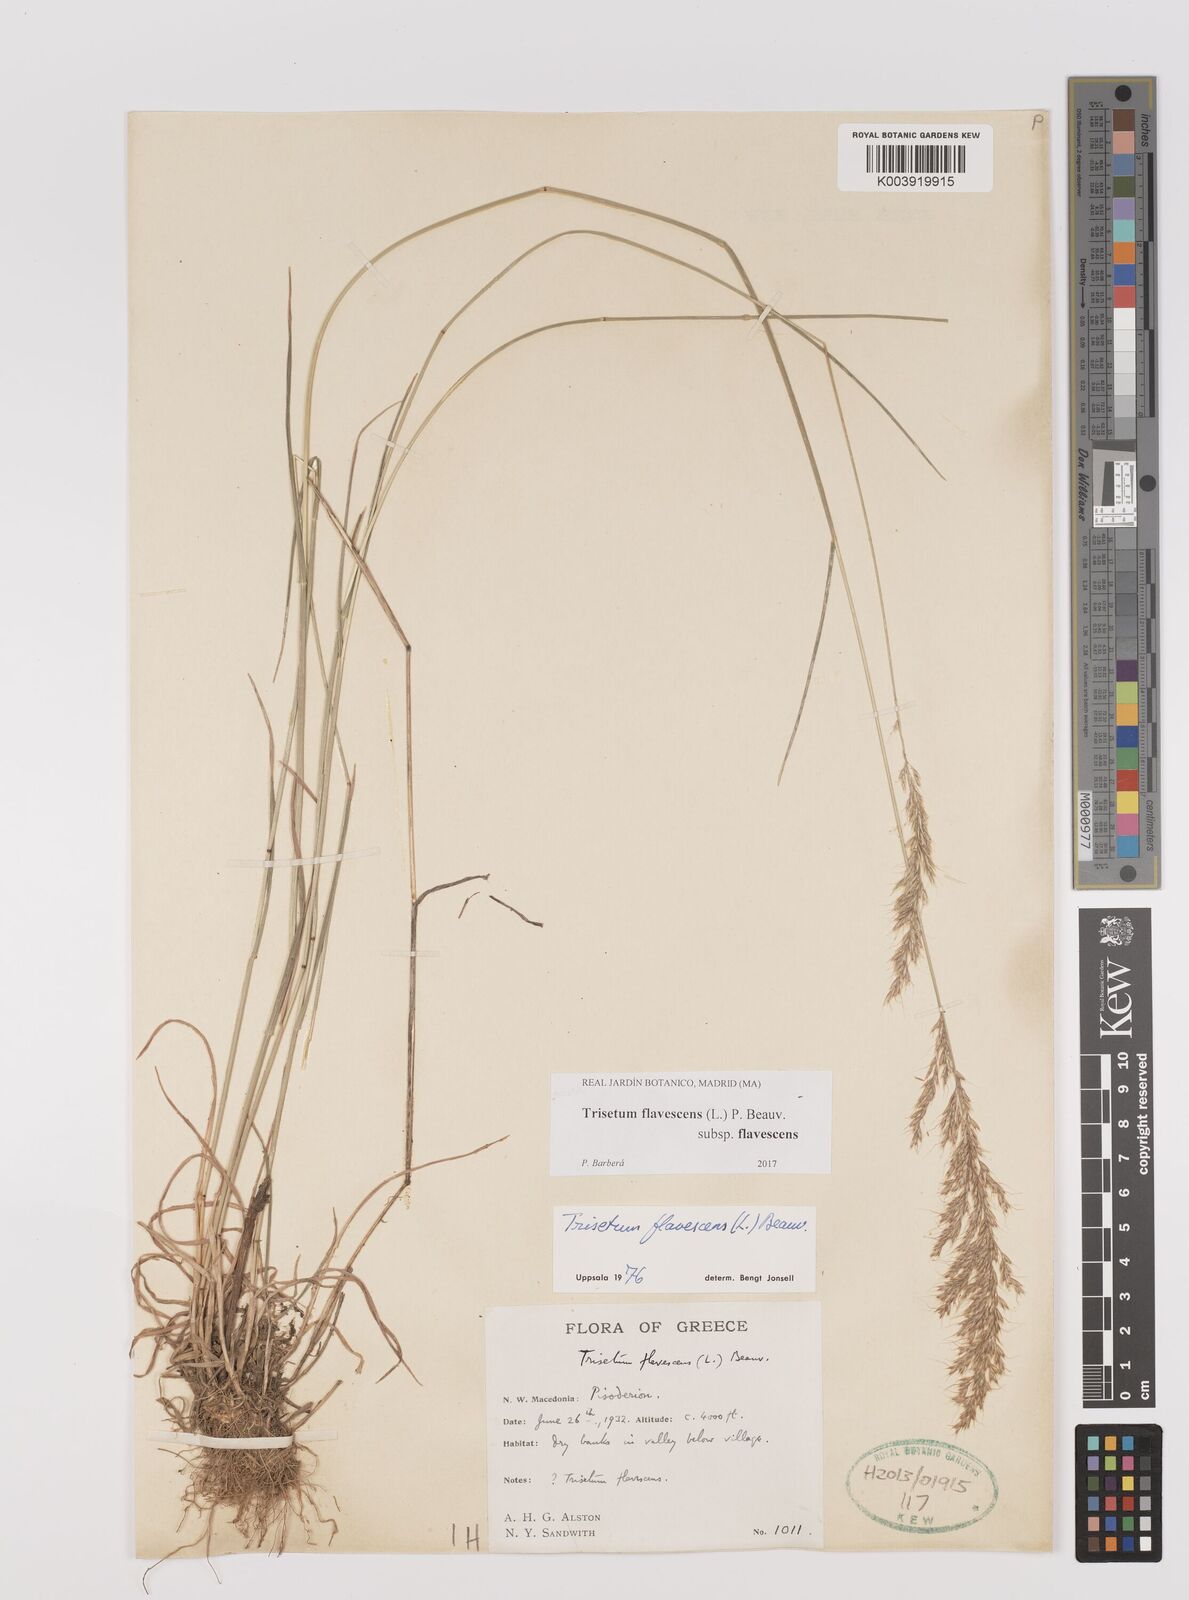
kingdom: Plantae
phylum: Tracheophyta
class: Liliopsida
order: Poales
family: Poaceae
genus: Trisetum
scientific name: Trisetum flavescens
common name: Yellow oat-grass
